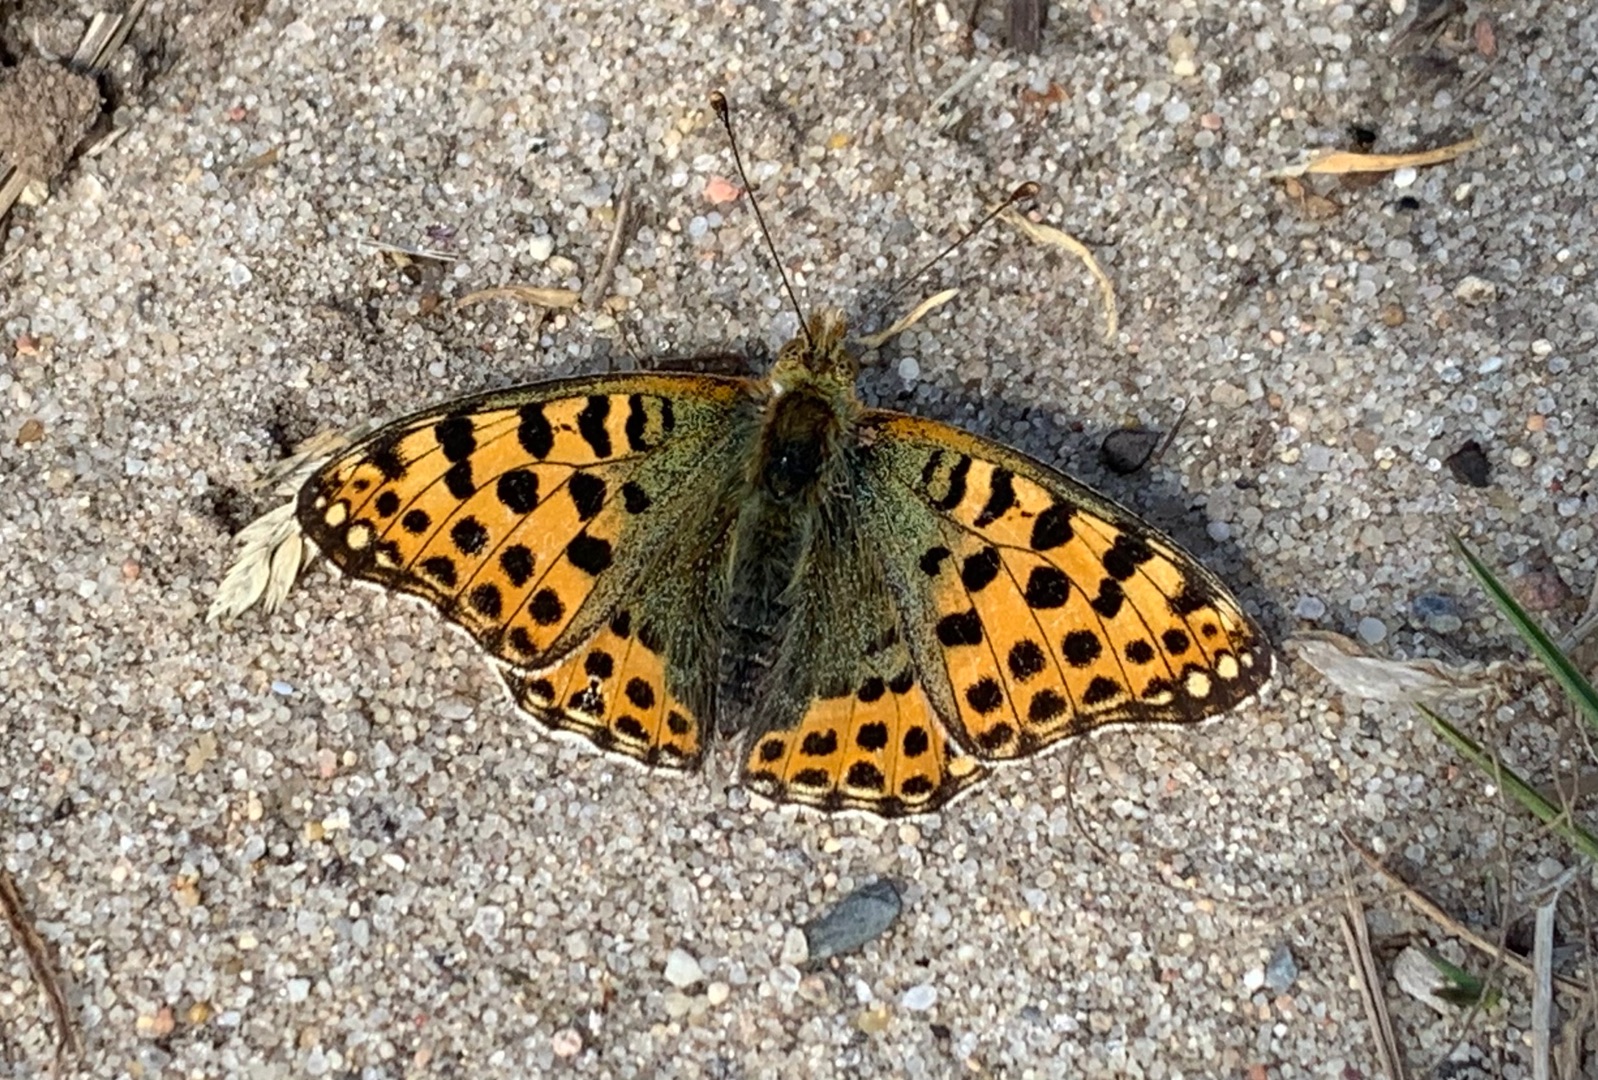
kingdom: Animalia
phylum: Arthropoda
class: Insecta
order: Lepidoptera
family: Nymphalidae
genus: Issoria
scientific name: Issoria lathonia
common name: Storplettet perlemorsommerfugl
